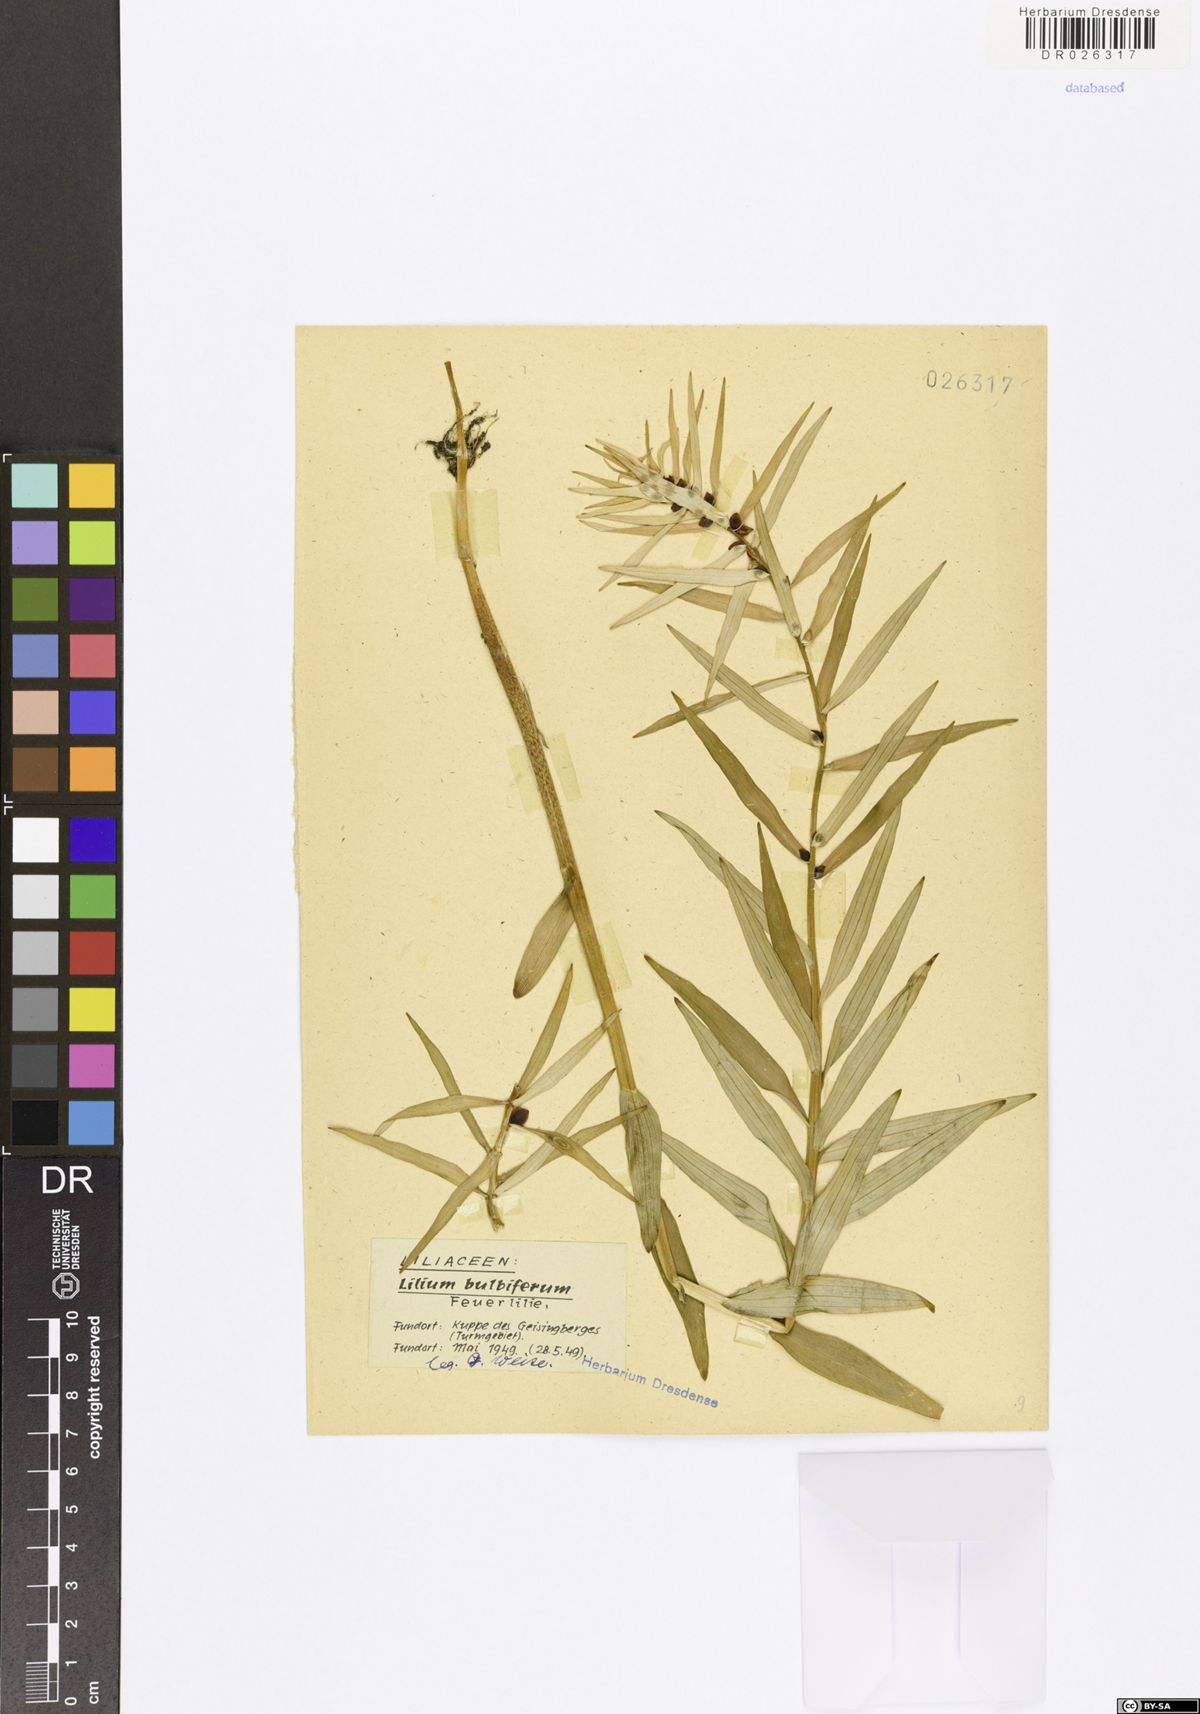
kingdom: Plantae
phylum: Tracheophyta
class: Liliopsida
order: Liliales
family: Liliaceae
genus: Lilium
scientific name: Lilium bulbiferum
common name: Orange lily
